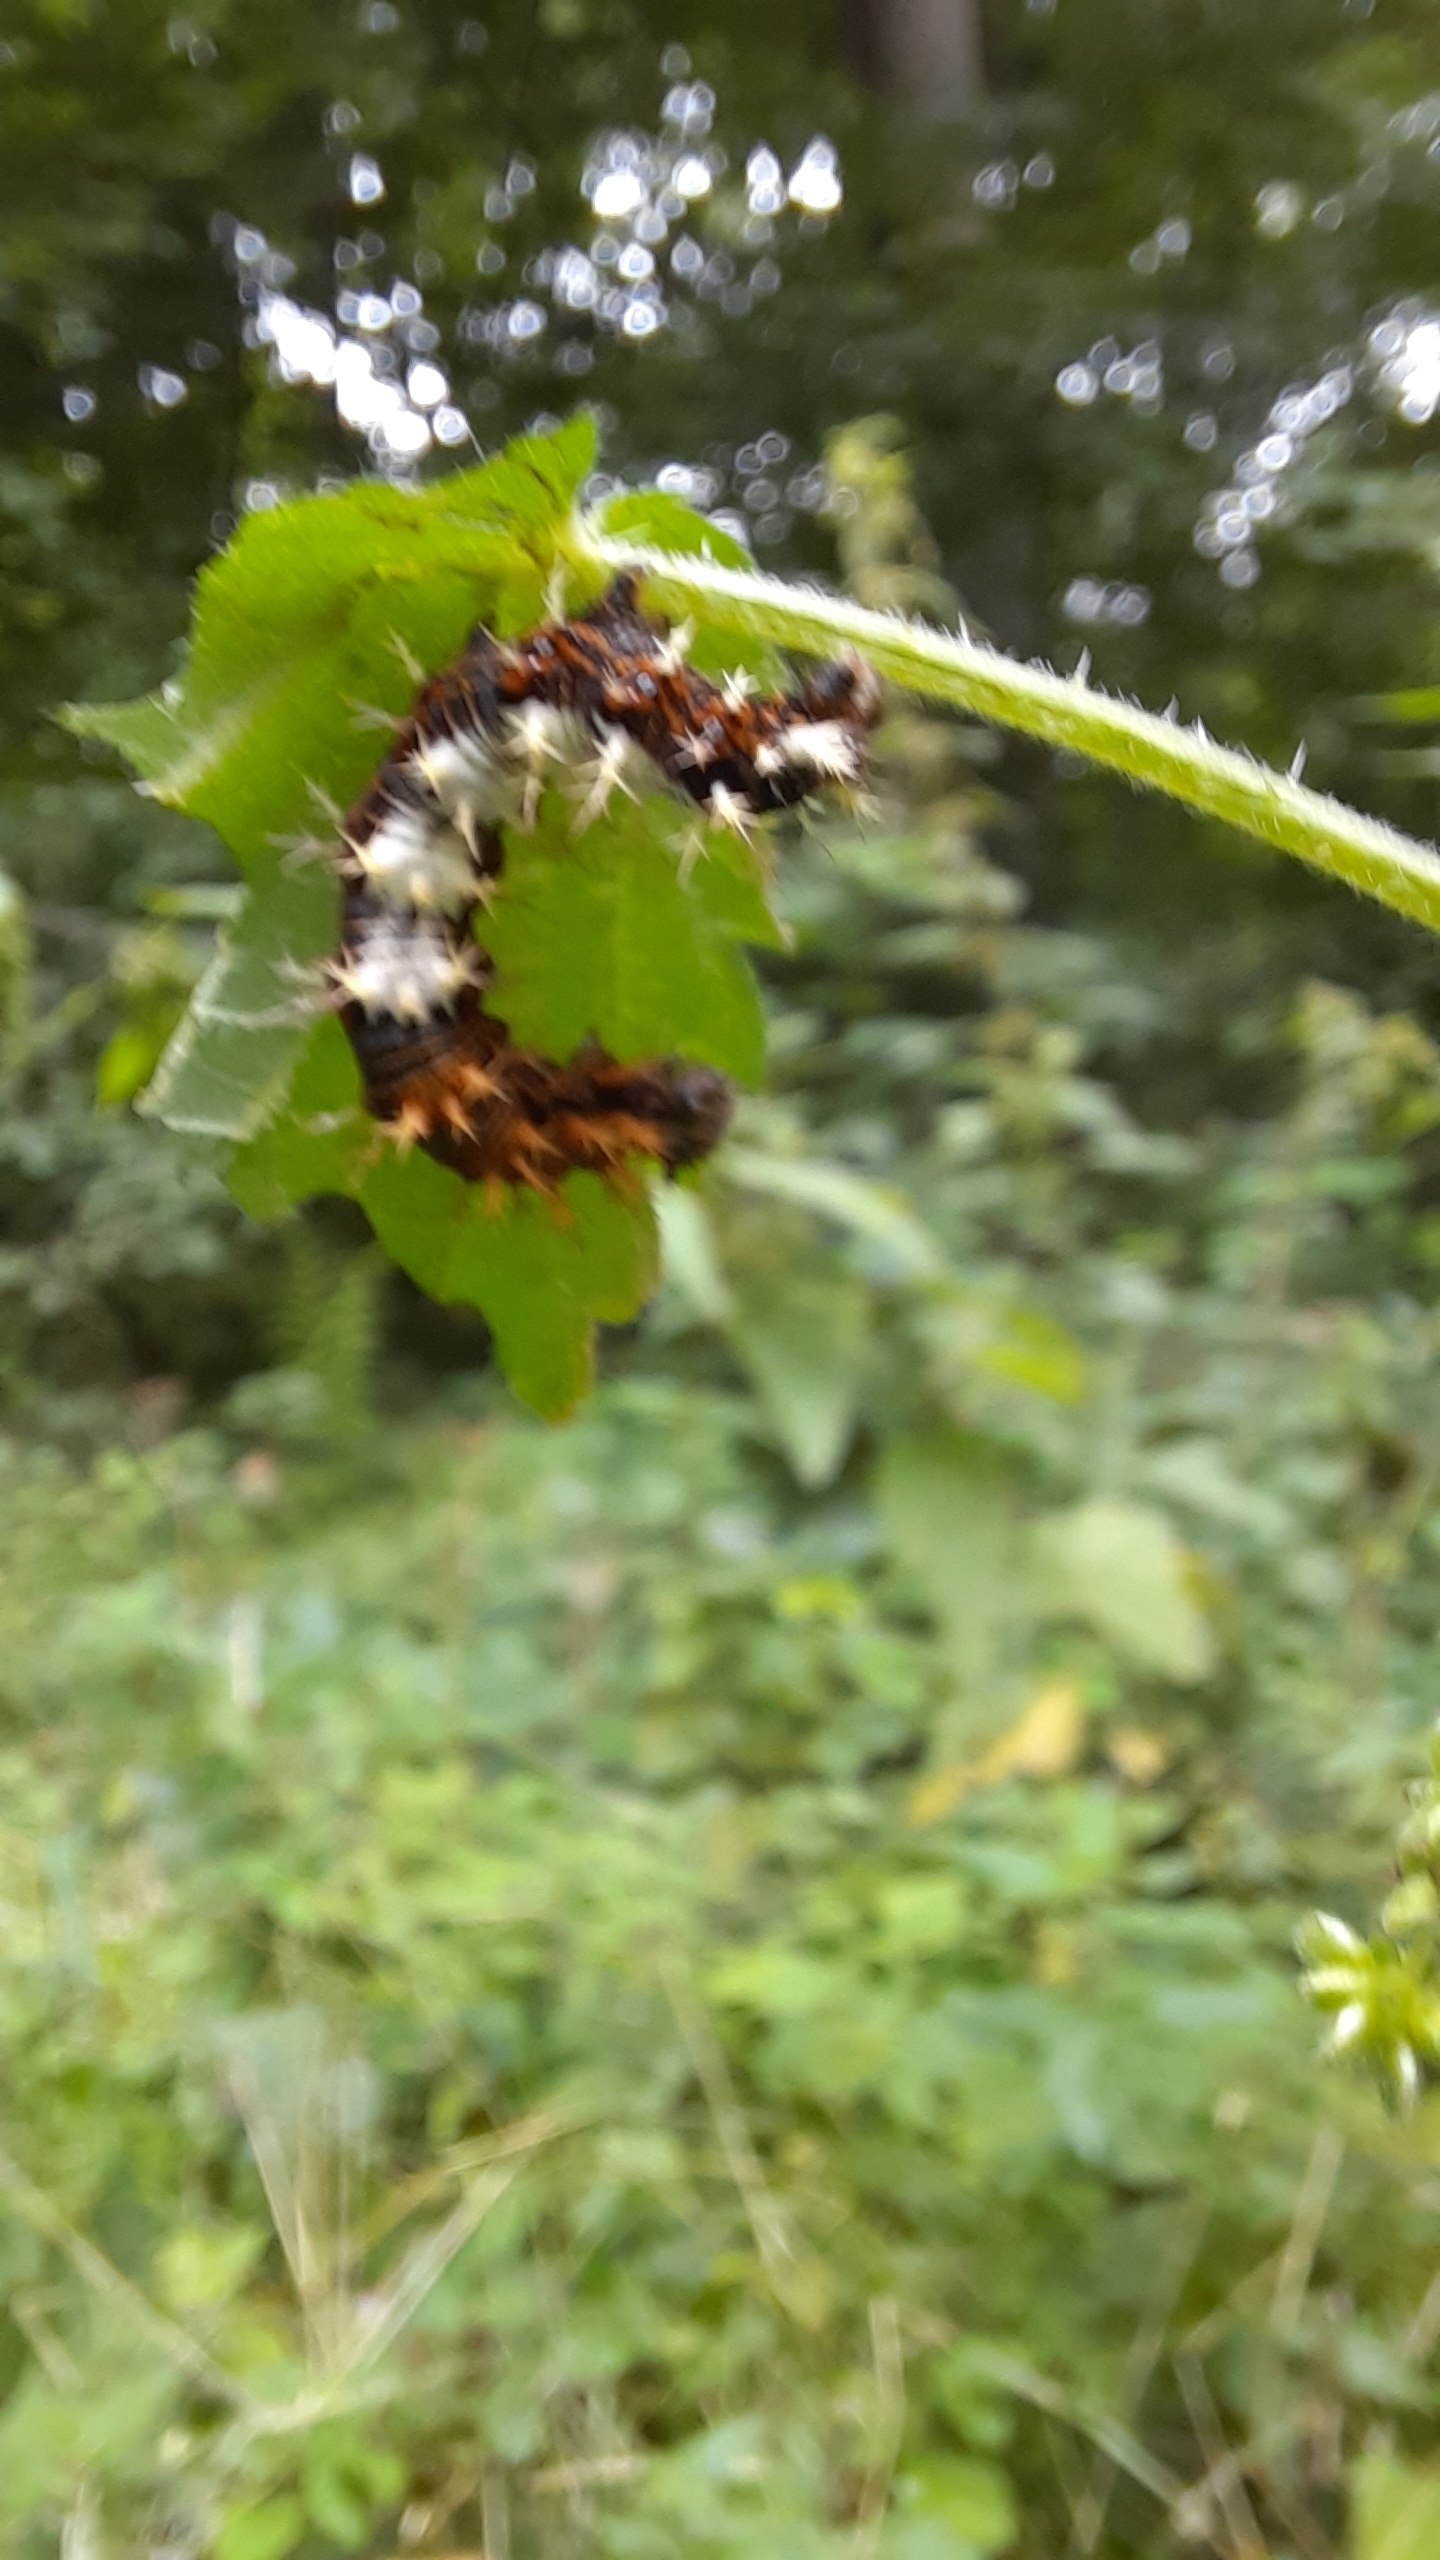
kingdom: Animalia
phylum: Arthropoda
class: Insecta
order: Lepidoptera
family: Nymphalidae
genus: Polygonia
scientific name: Polygonia c-album
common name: Det hvide C
